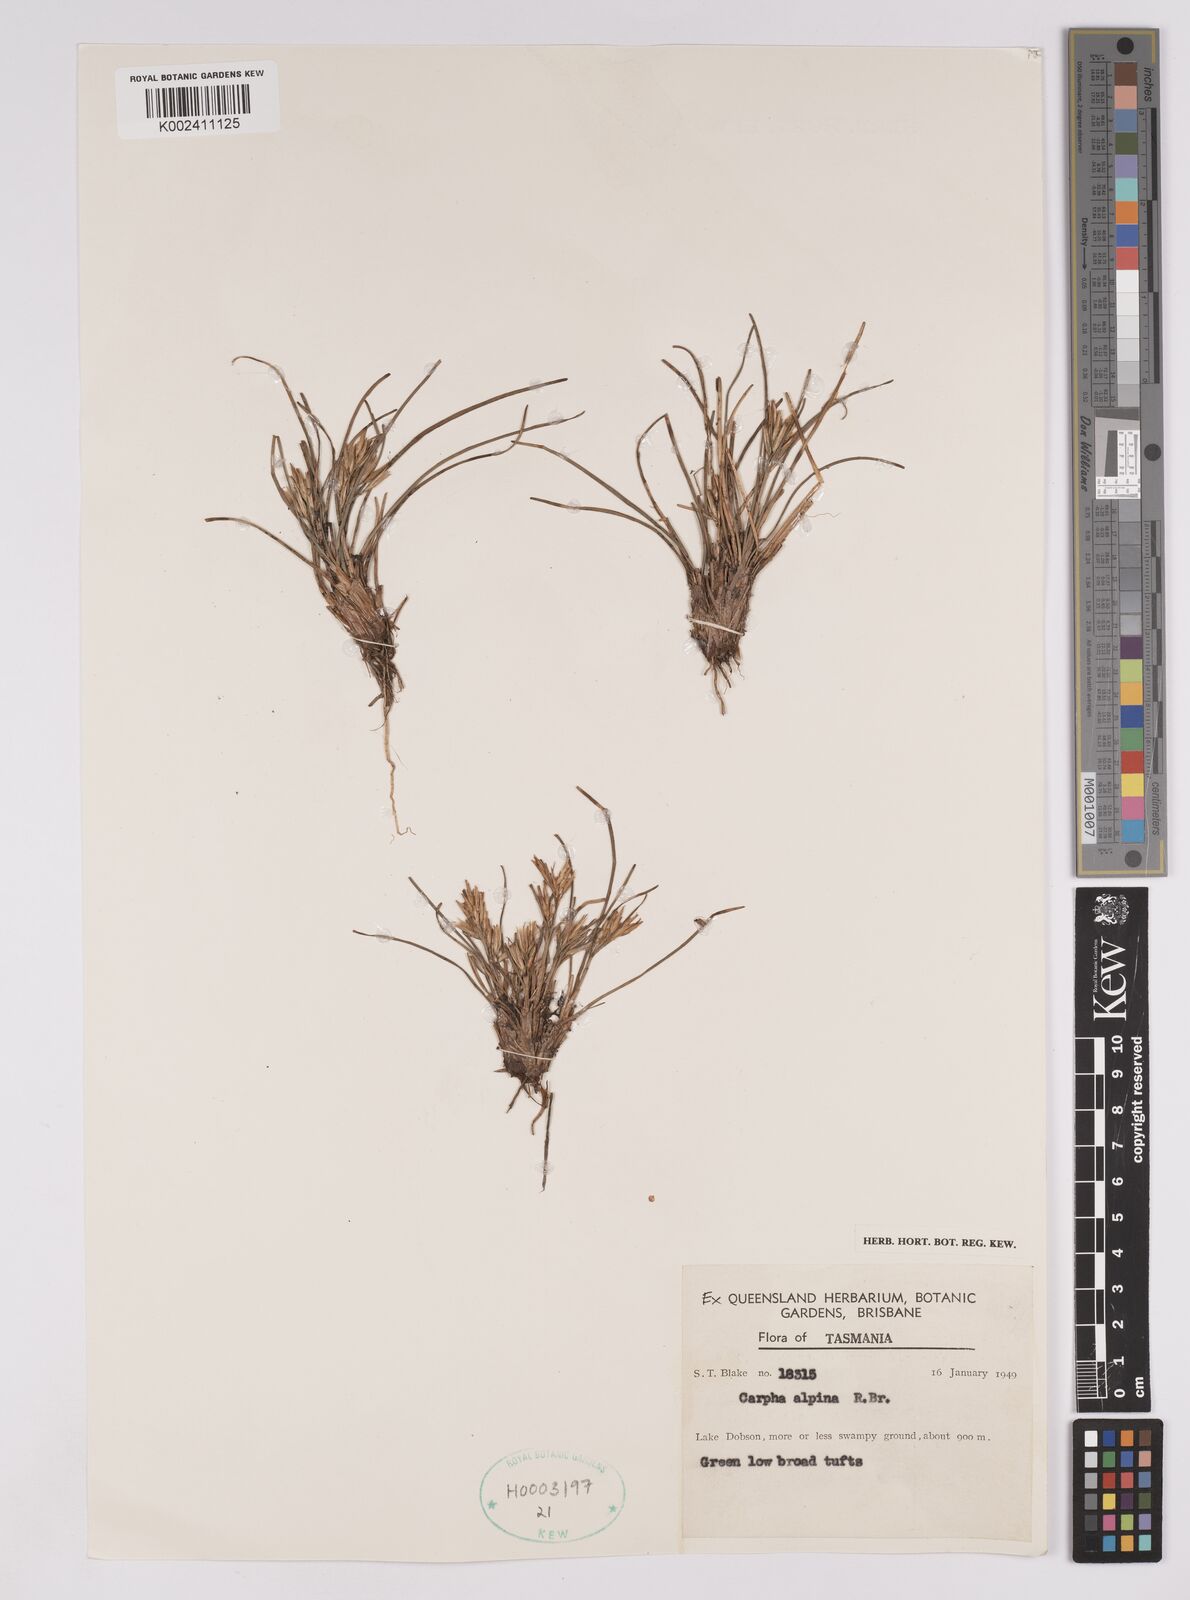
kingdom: Plantae
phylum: Tracheophyta
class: Liliopsida
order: Poales
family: Cyperaceae
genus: Carpha
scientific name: Carpha alpina
